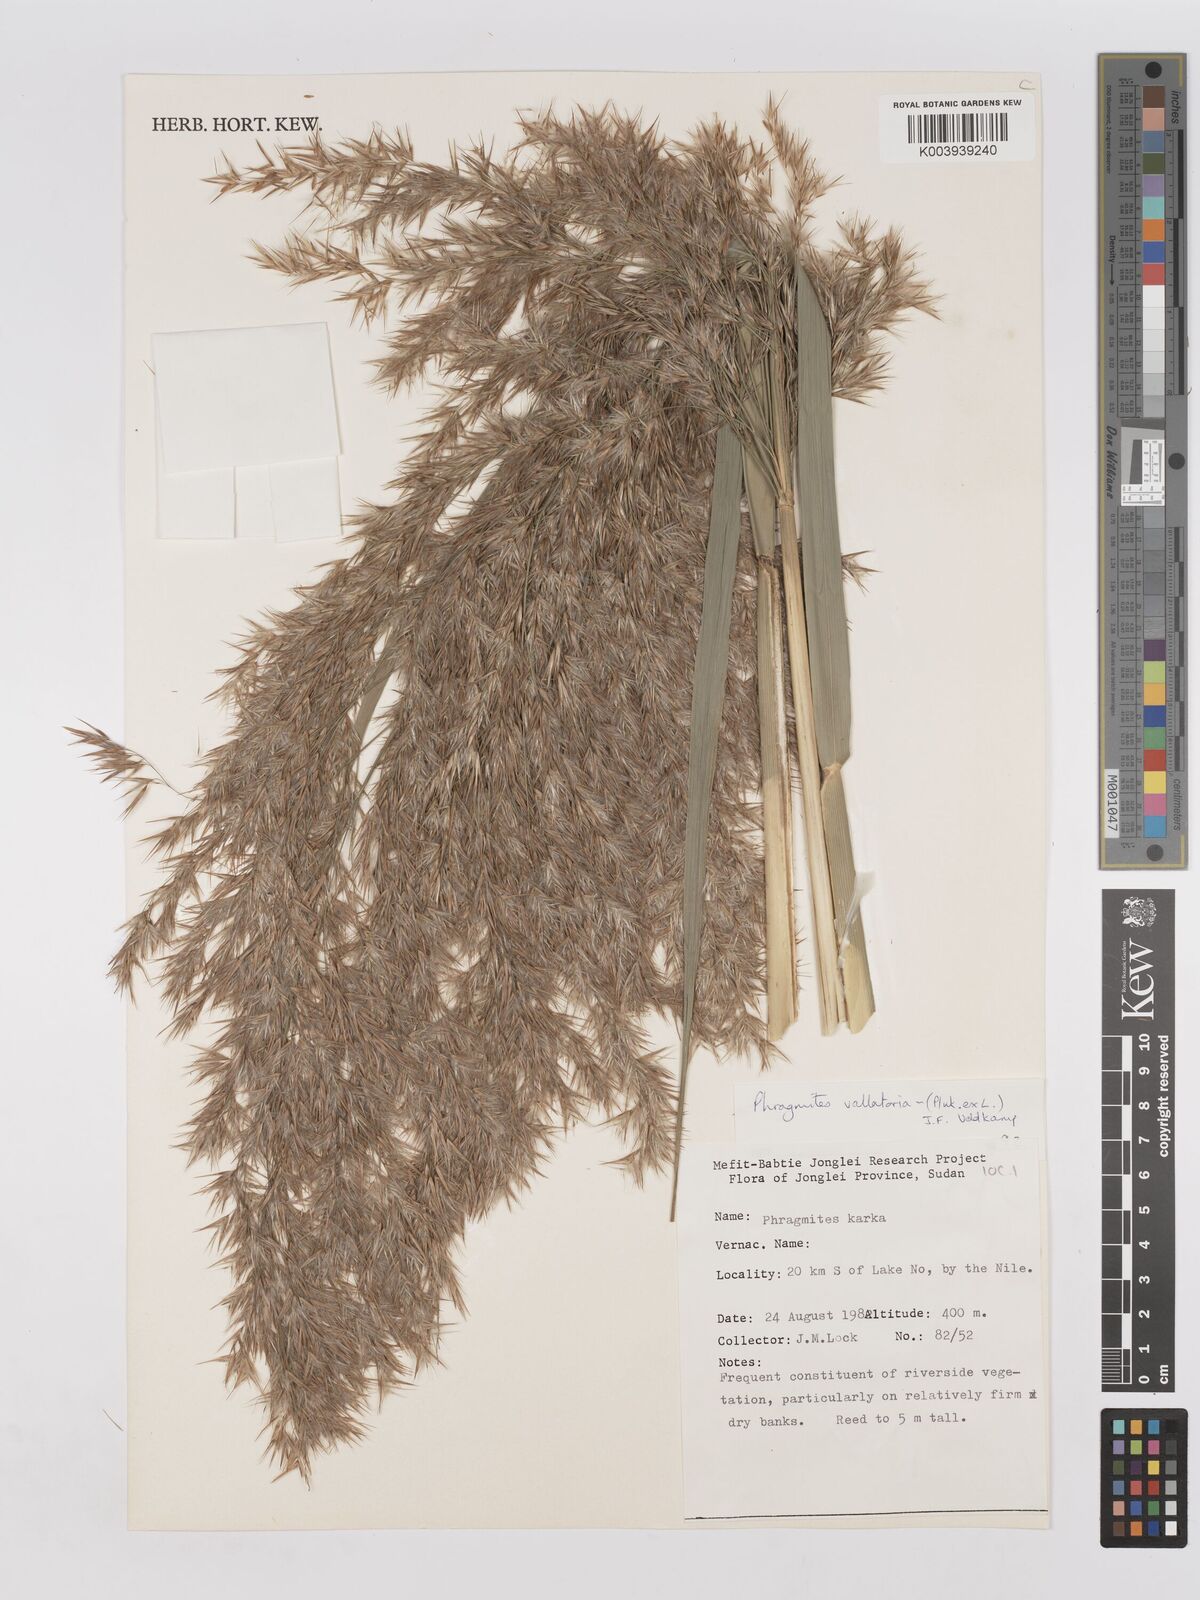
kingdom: Plantae
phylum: Tracheophyta
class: Liliopsida
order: Poales
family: Poaceae
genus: Phragmites
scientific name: Phragmites karka
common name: Tropical reed
